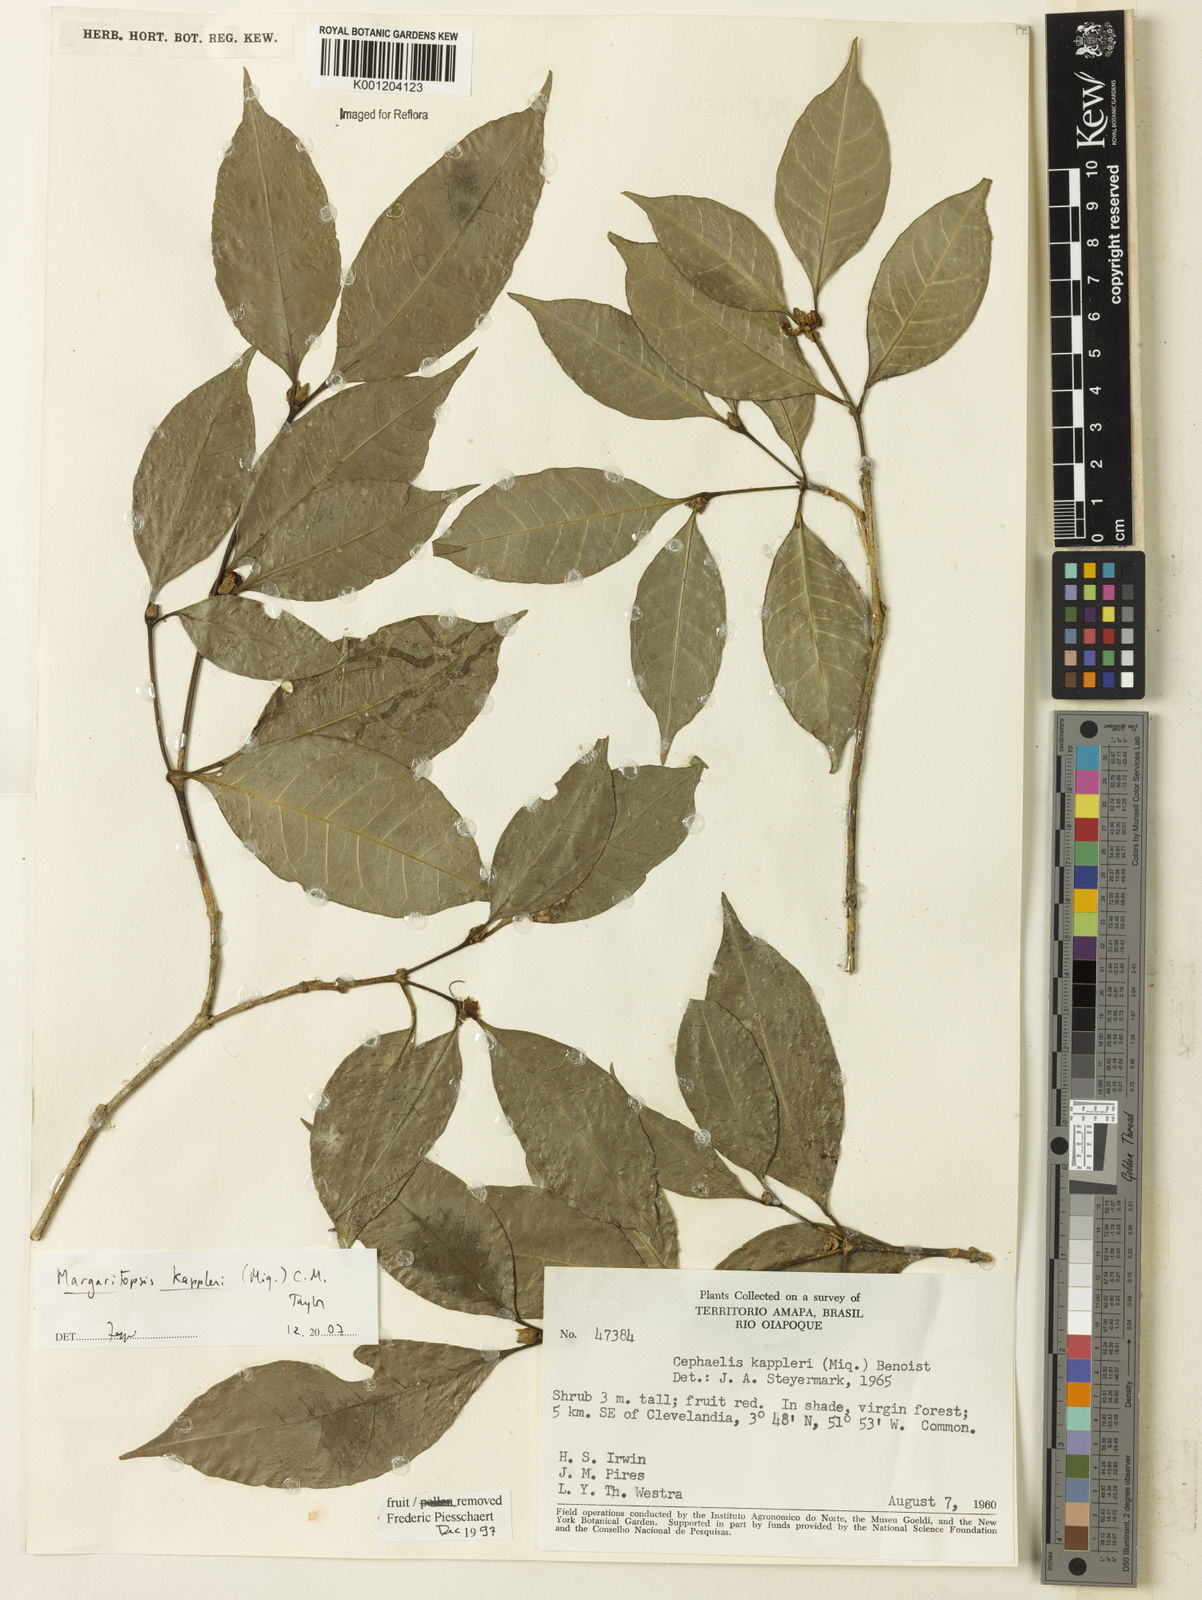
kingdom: Plantae
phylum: Tracheophyta
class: Magnoliopsida
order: Gentianales
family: Rubiaceae
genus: Eumachia
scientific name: Eumachia kappleri
